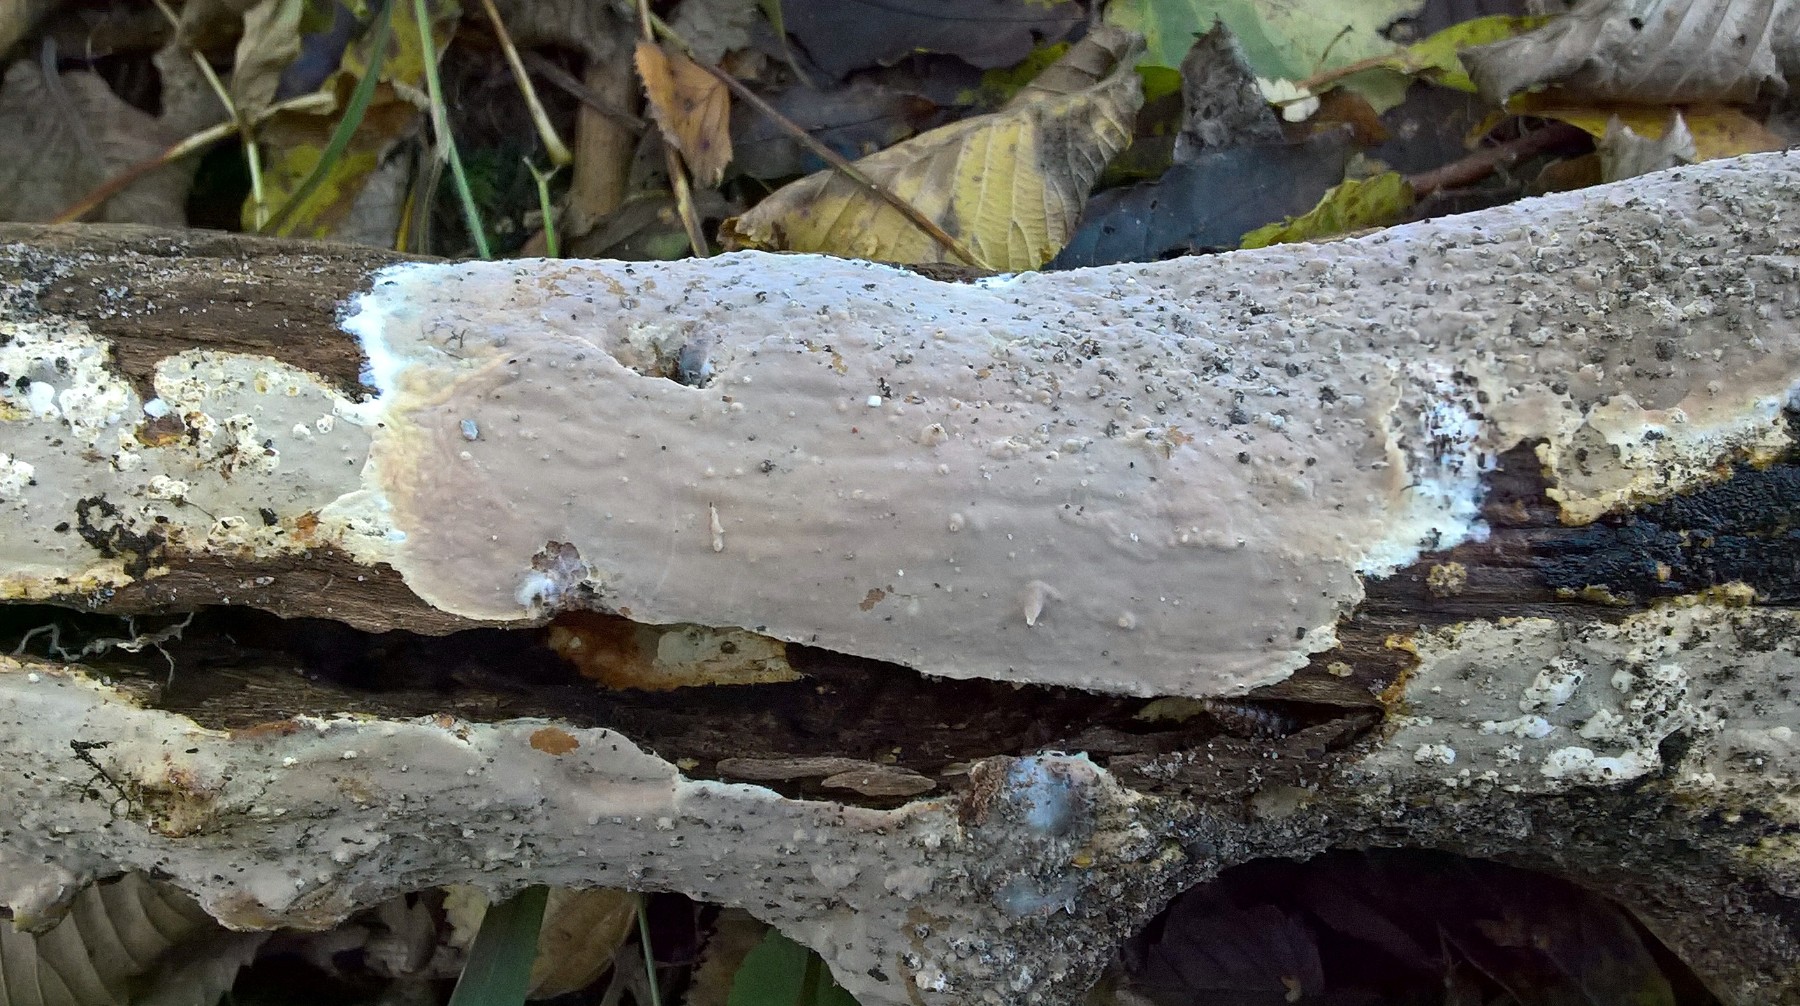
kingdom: Fungi
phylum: Basidiomycota
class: Agaricomycetes
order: Russulales
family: Peniophoraceae
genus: Scytinostroma
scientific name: Scytinostroma hemidichophyticum
